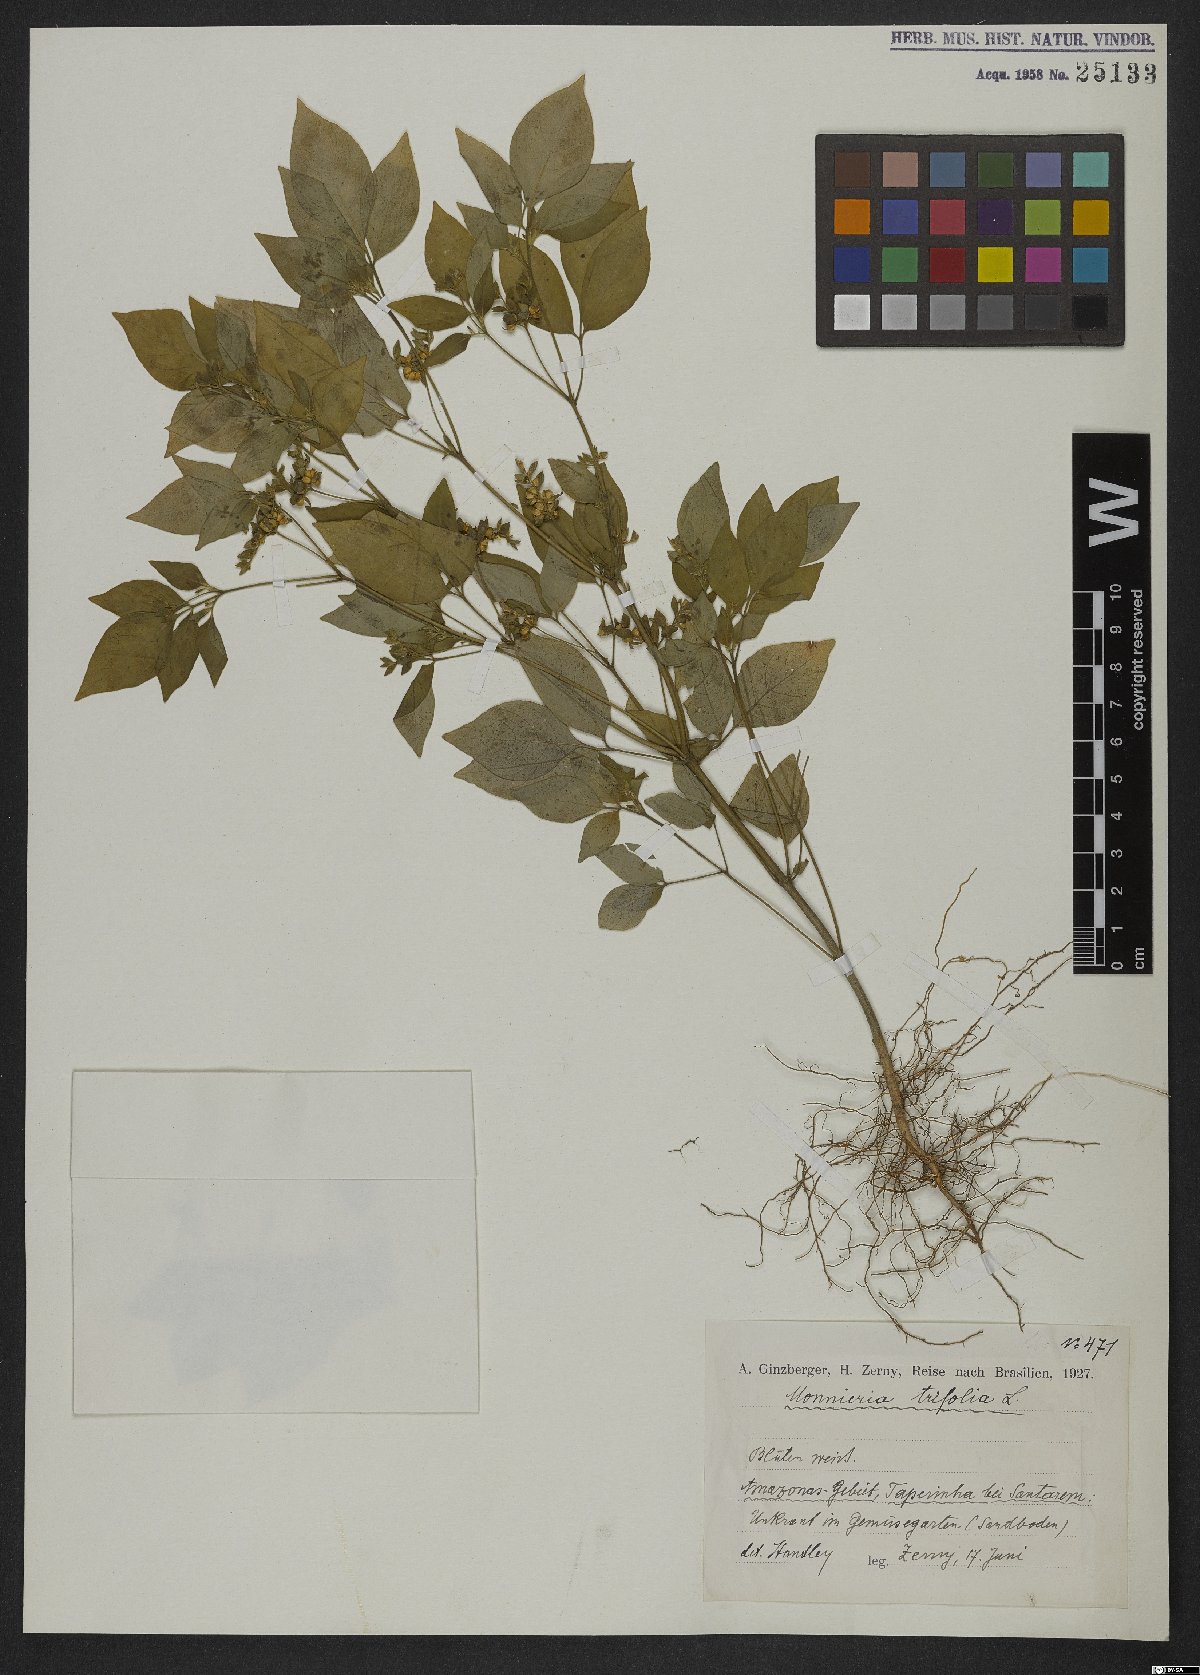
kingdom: Plantae
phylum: Tracheophyta
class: Magnoliopsida
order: Sapindales
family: Rutaceae
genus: Ertela
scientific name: Ertela trifolia
